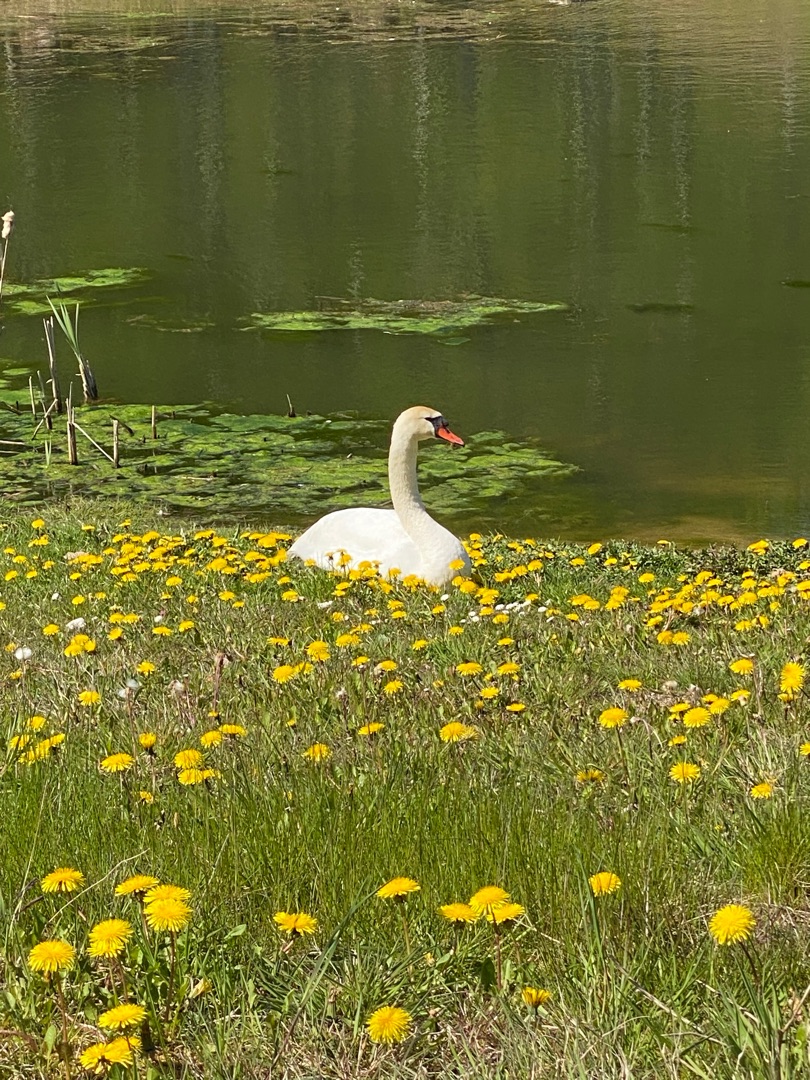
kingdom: Animalia
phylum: Chordata
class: Aves
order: Anseriformes
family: Anatidae
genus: Cygnus
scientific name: Cygnus olor
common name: Knopsvane
